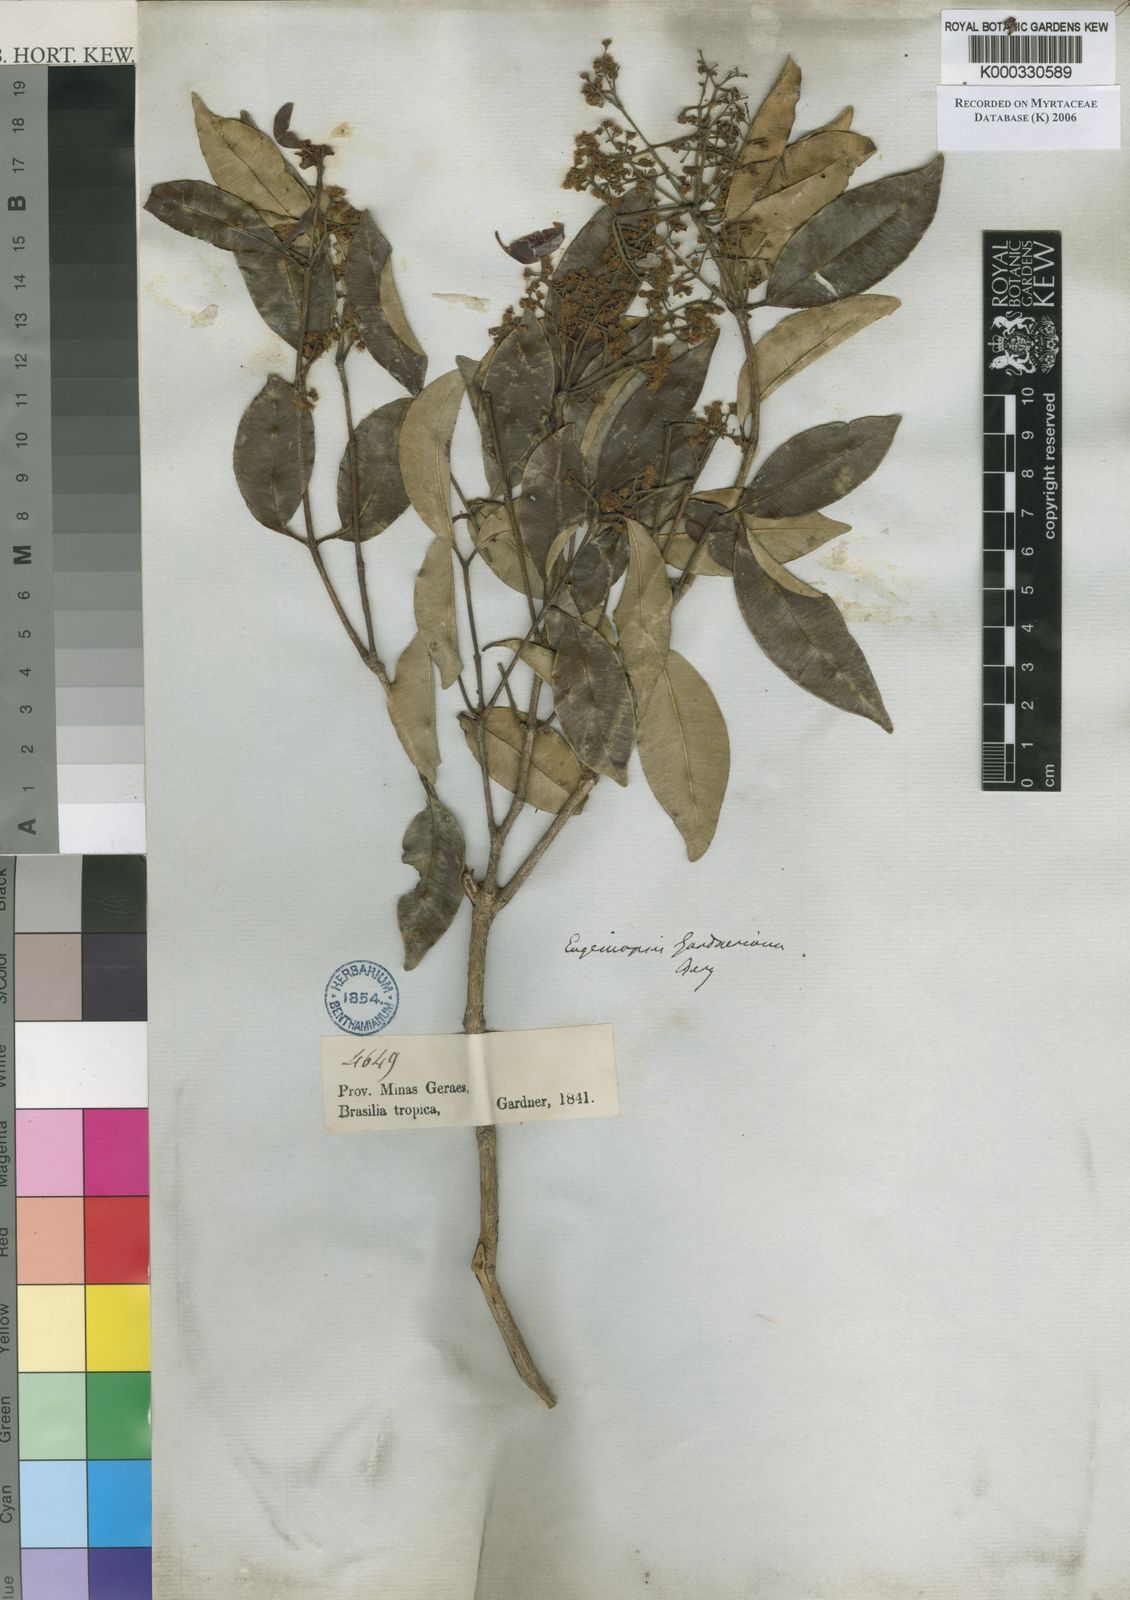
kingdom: Plantae
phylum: Tracheophyta
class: Magnoliopsida
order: Myrtales
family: Myrtaceae
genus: Marlierea
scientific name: Marlierea gardneriana
